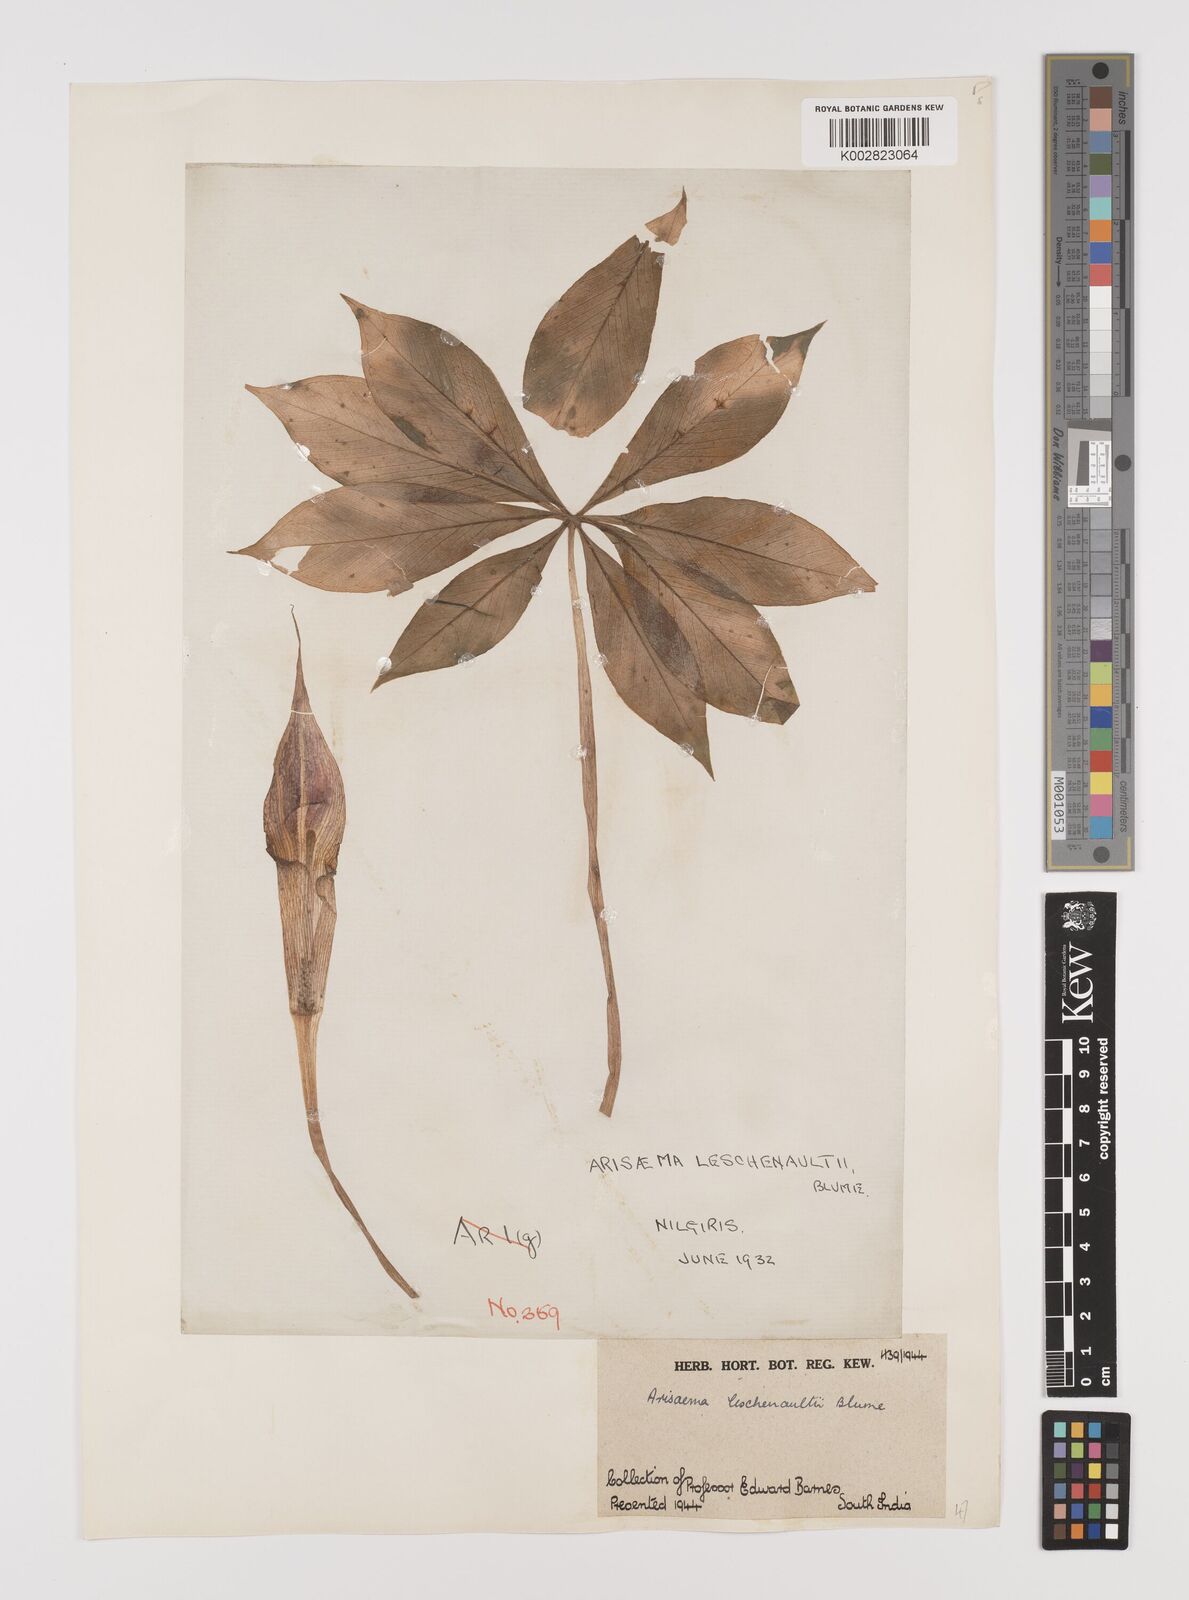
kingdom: Plantae
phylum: Tracheophyta
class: Liliopsida
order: Alismatales
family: Araceae
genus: Arisaema
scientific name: Arisaema leschenaultii
